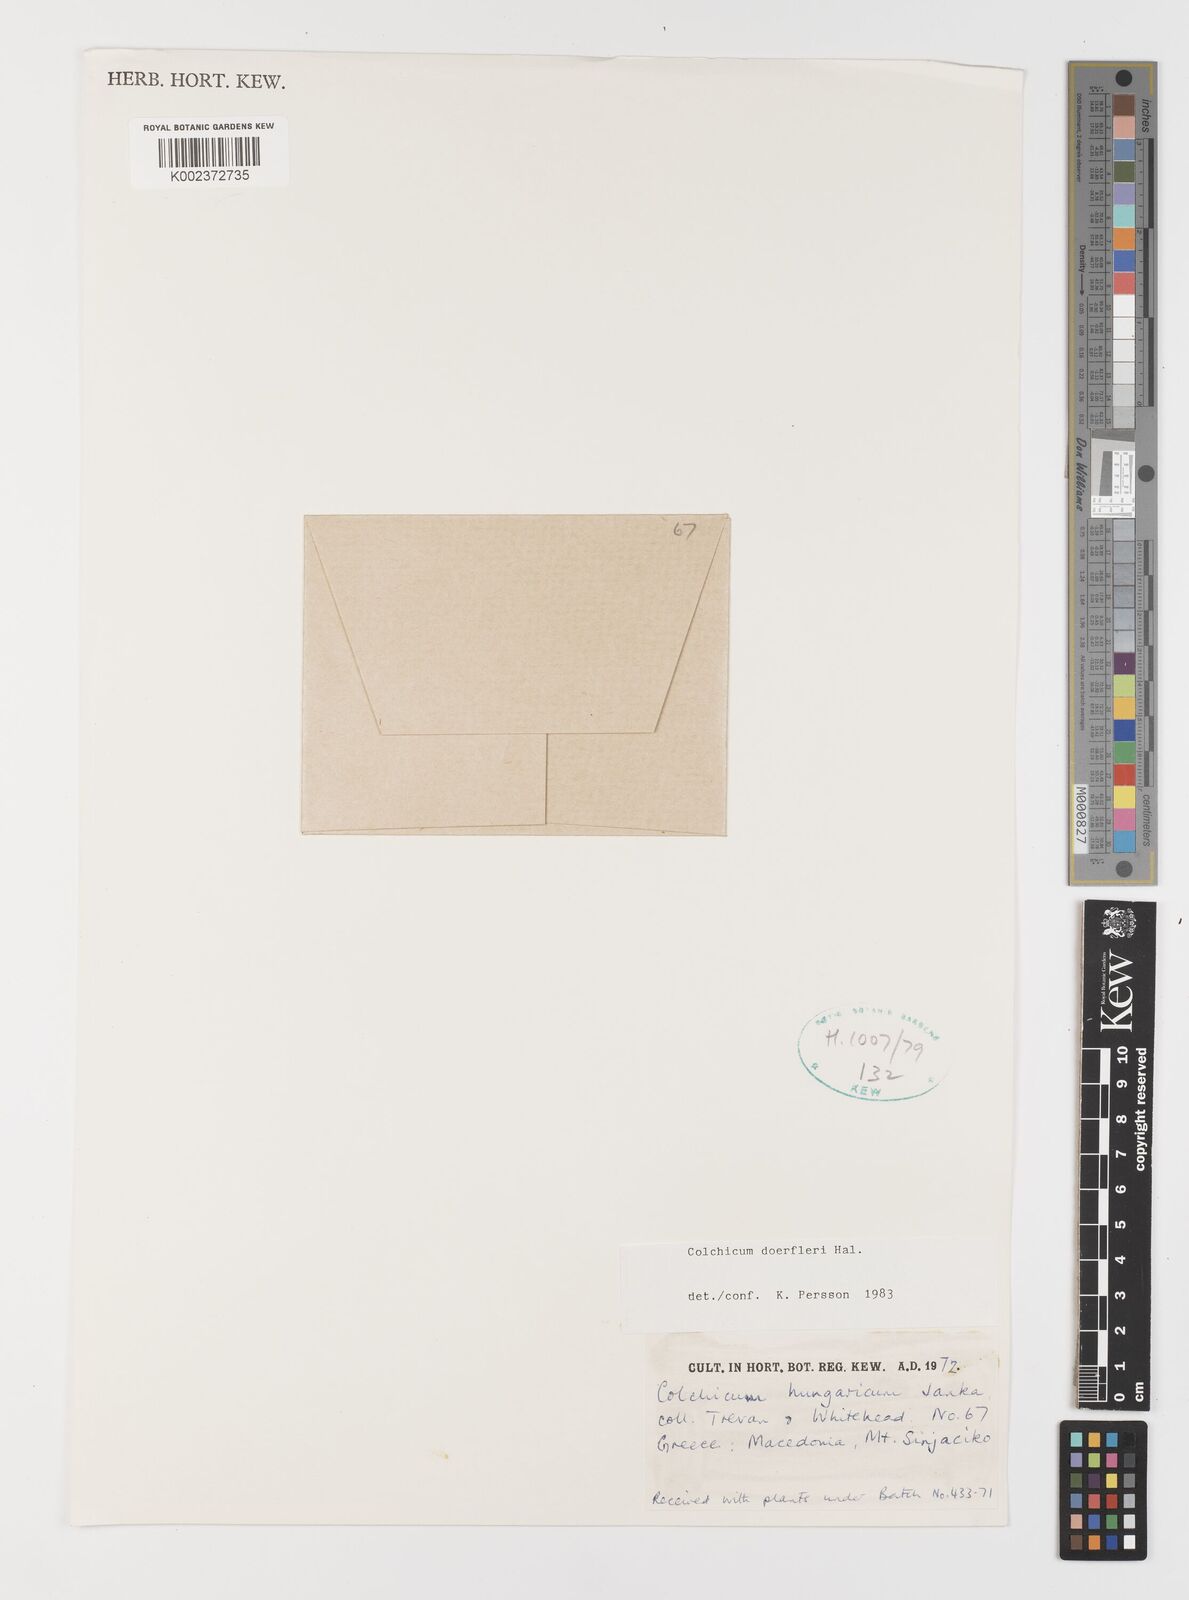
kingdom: Plantae
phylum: Tracheophyta
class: Liliopsida
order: Liliales
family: Colchicaceae
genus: Colchicum
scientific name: Colchicum doerfleri
